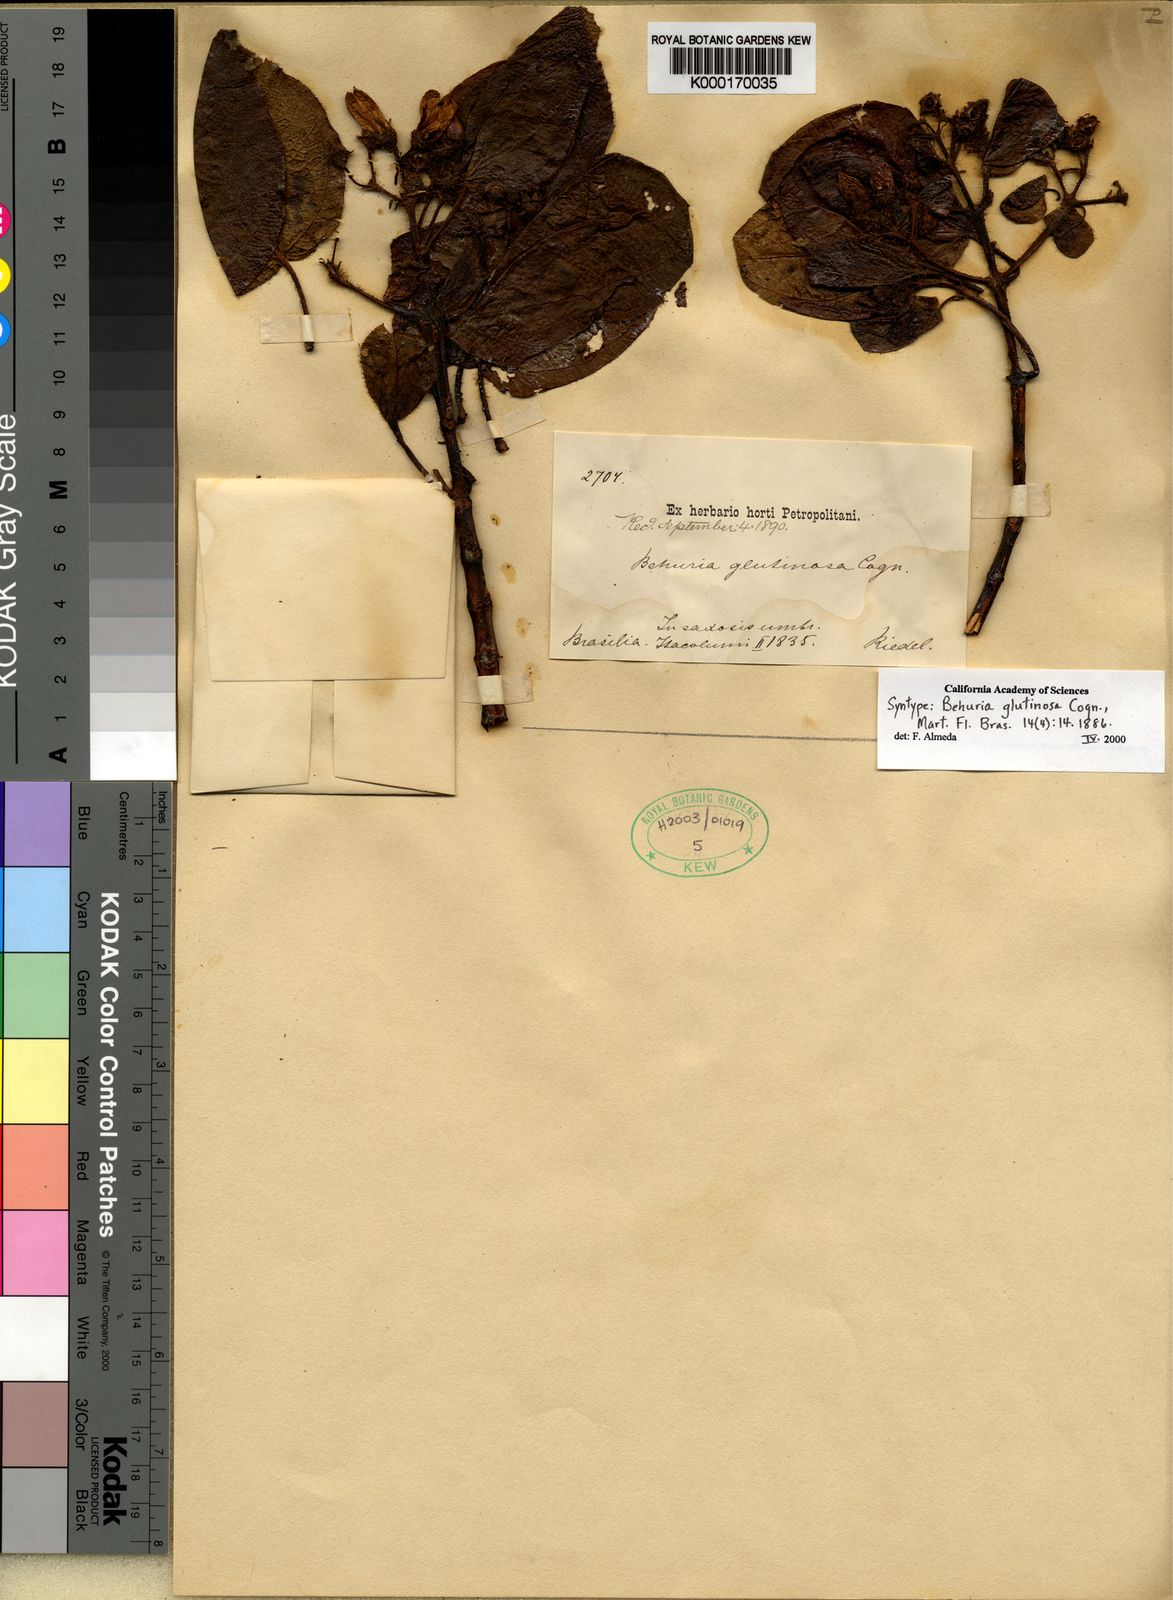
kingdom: Plantae
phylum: Tracheophyta
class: Magnoliopsida
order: Myrtales
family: Melastomataceae
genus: Huberia
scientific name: Huberia glutinosa
